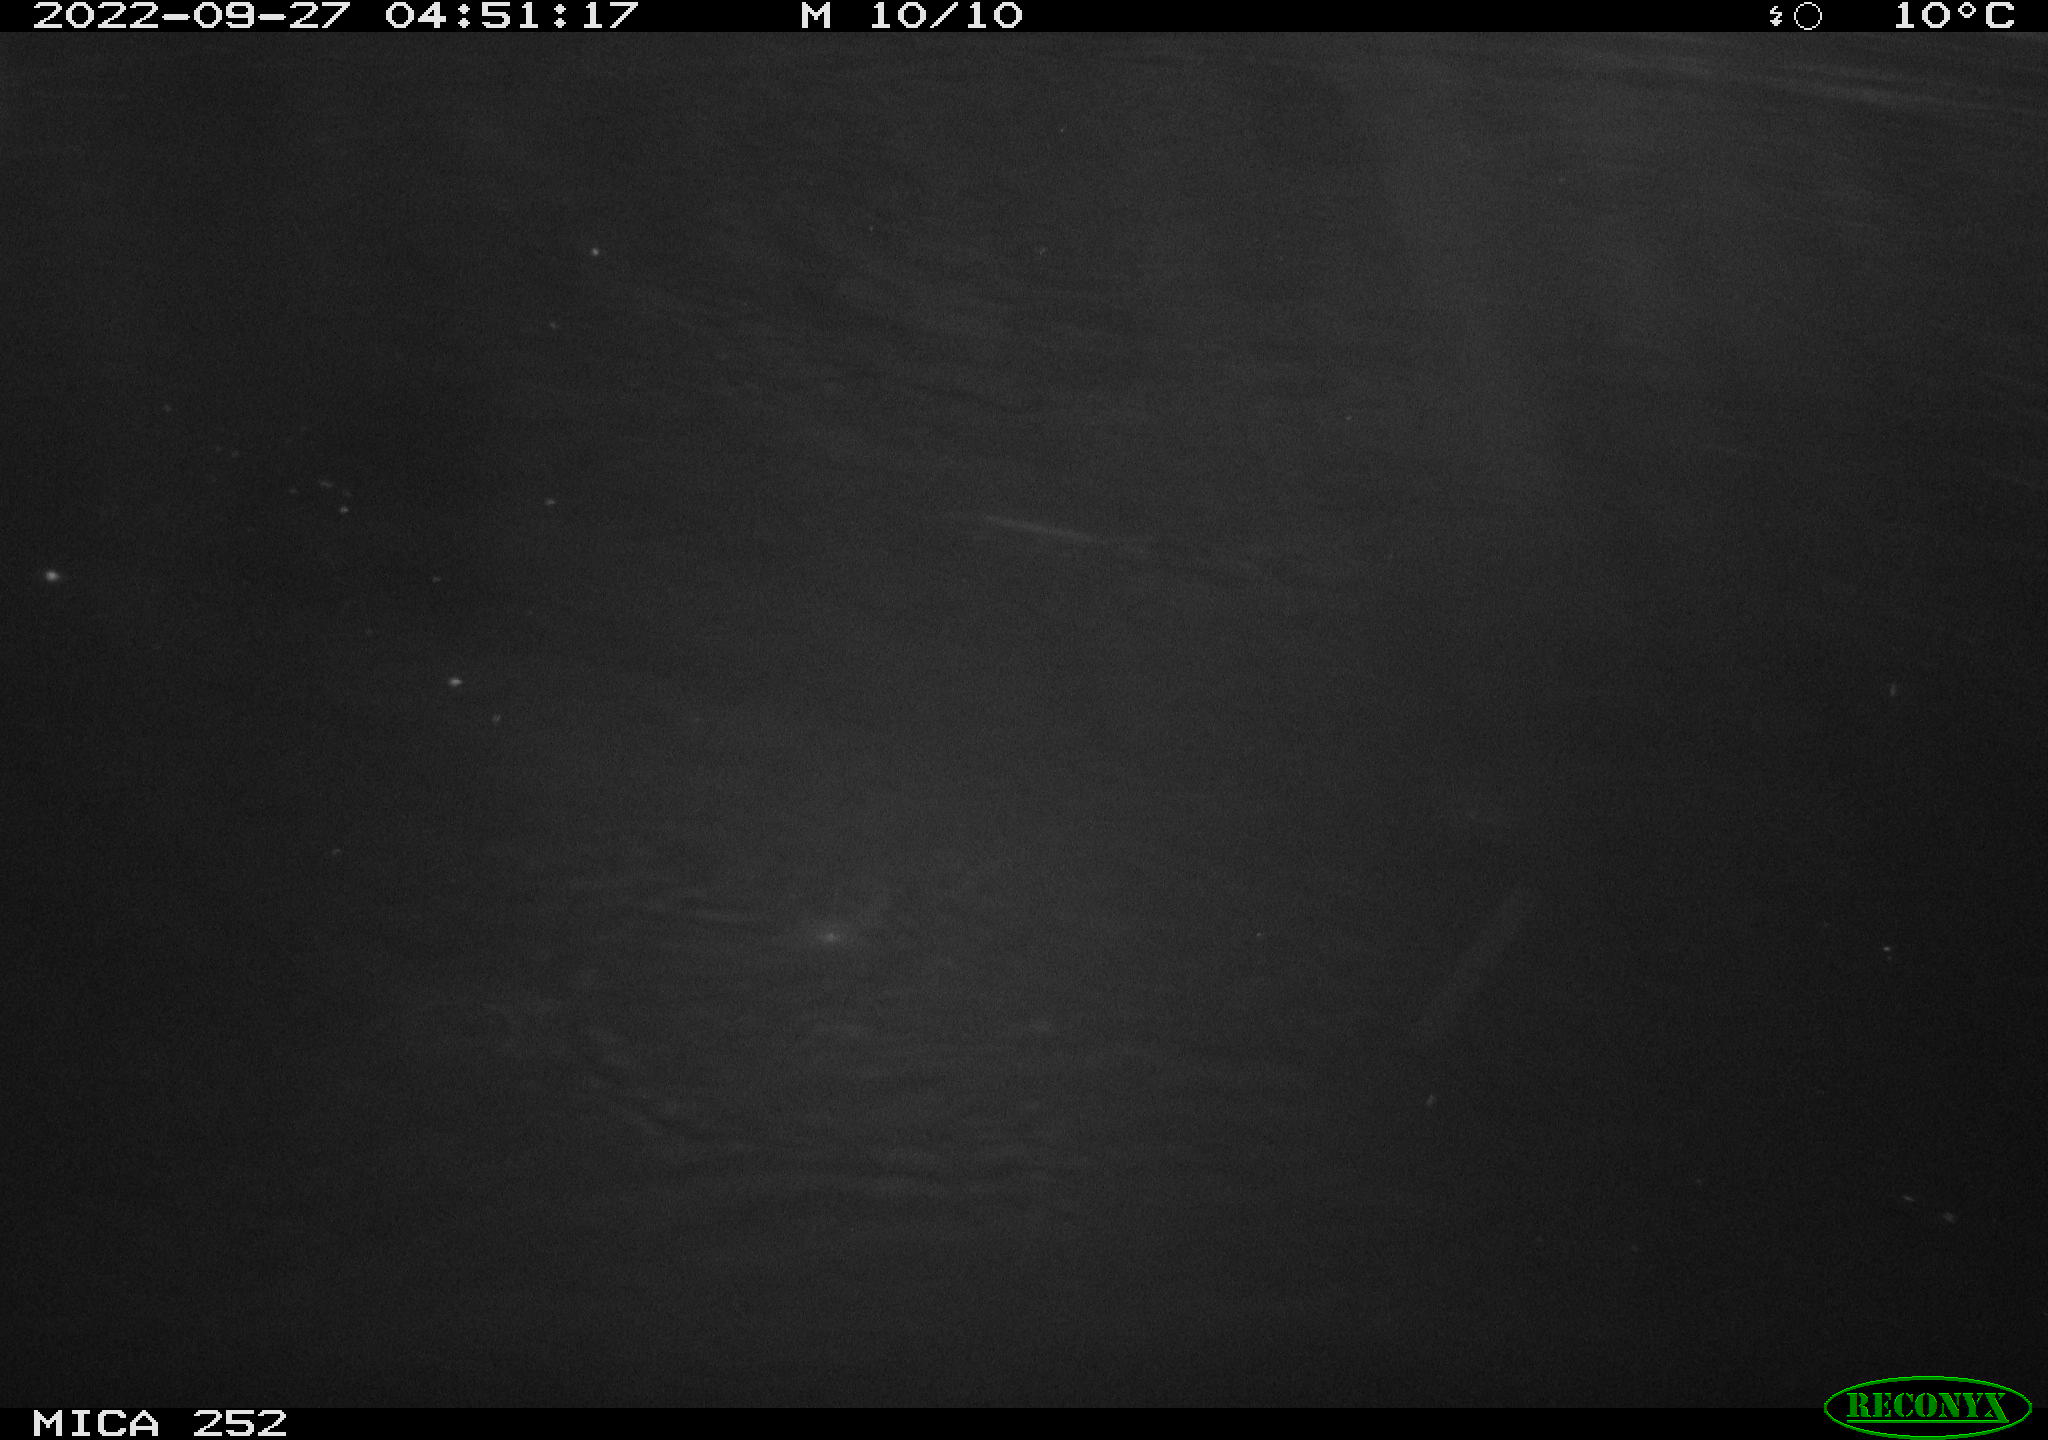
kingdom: Animalia
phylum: Chordata
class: Mammalia
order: Rodentia
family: Castoridae
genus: Castor
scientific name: Castor fiber
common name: Eurasian beaver
